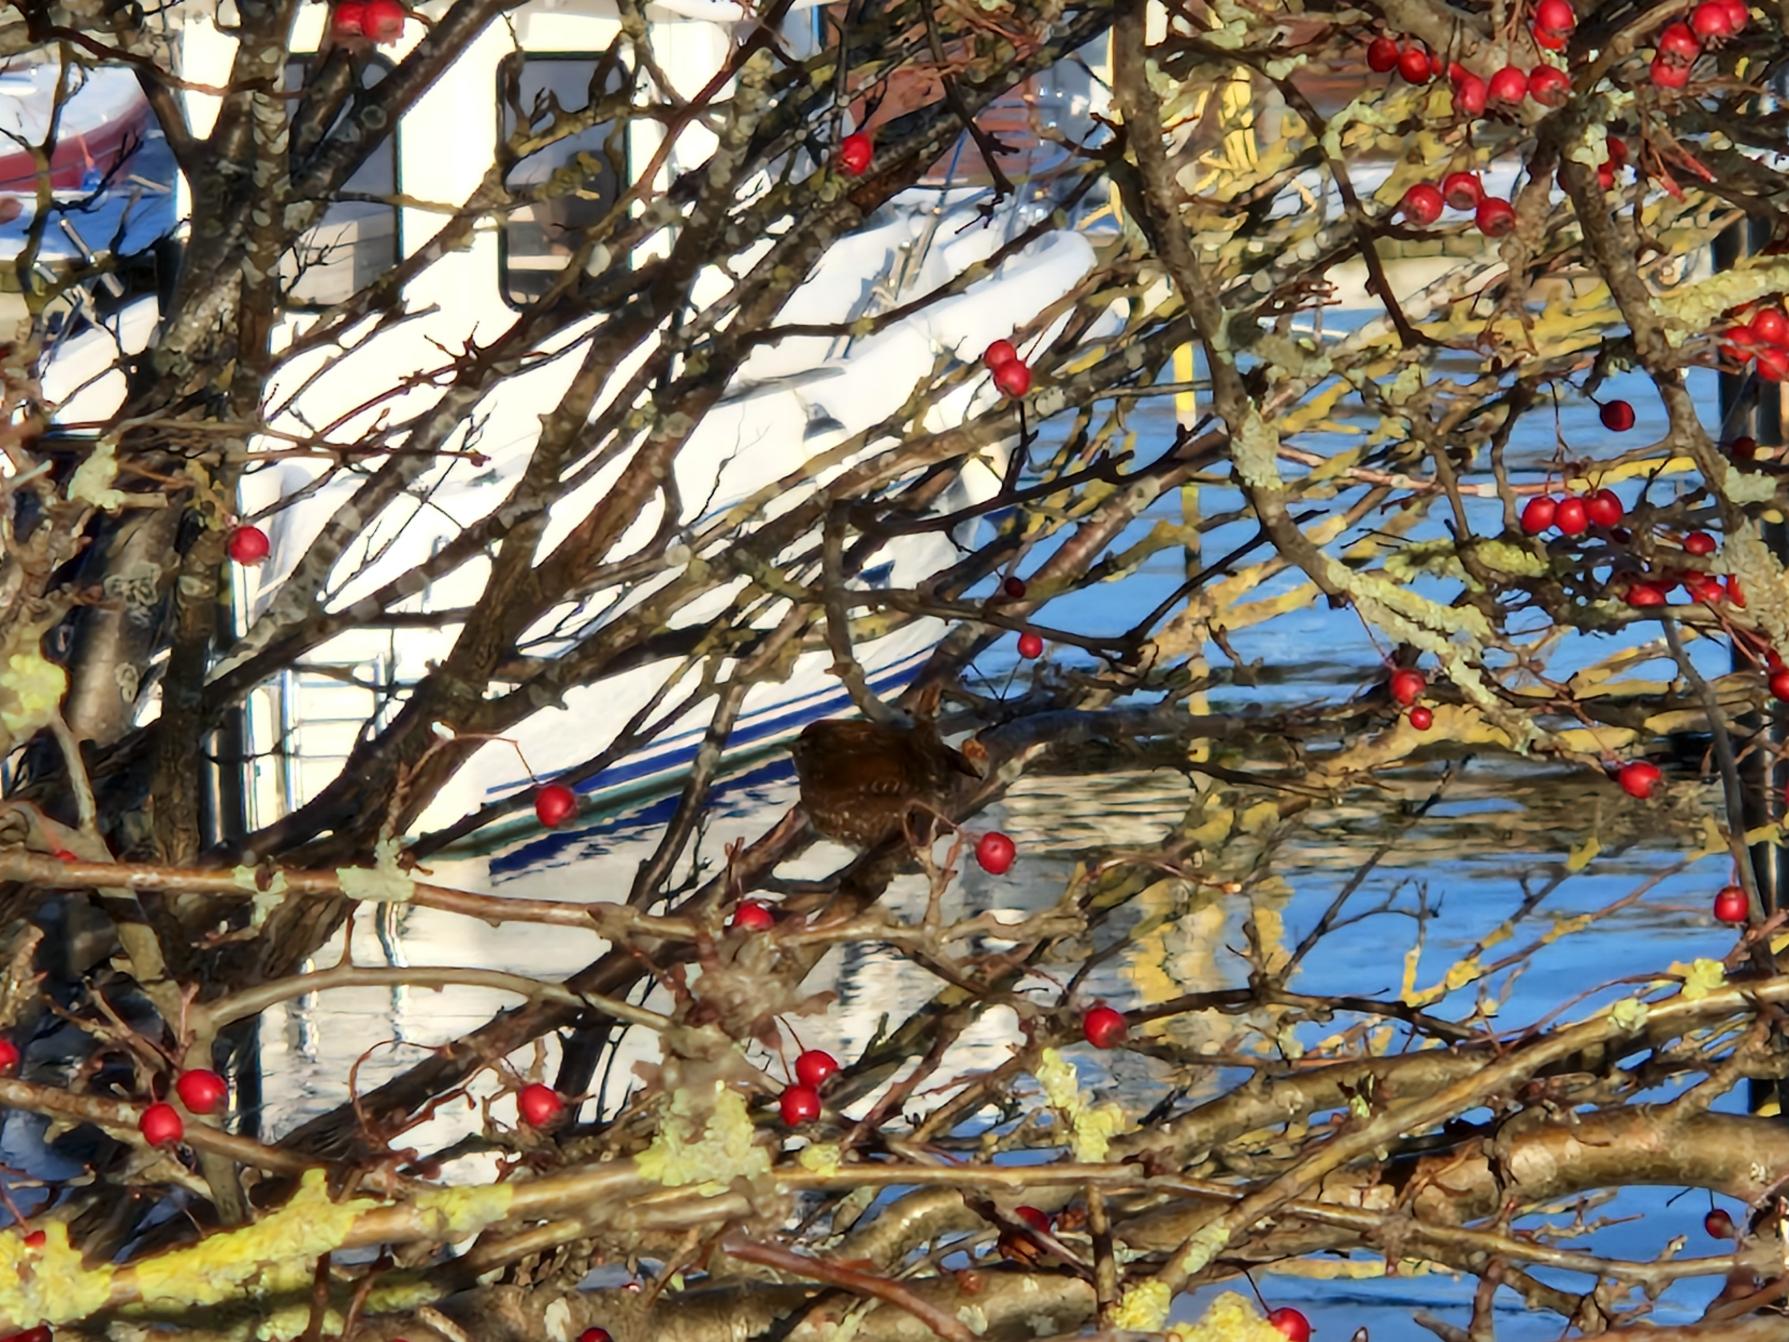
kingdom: Animalia
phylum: Chordata
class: Aves
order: Passeriformes
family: Troglodytidae
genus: Troglodytes
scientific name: Troglodytes troglodytes
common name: Gærdesmutte
